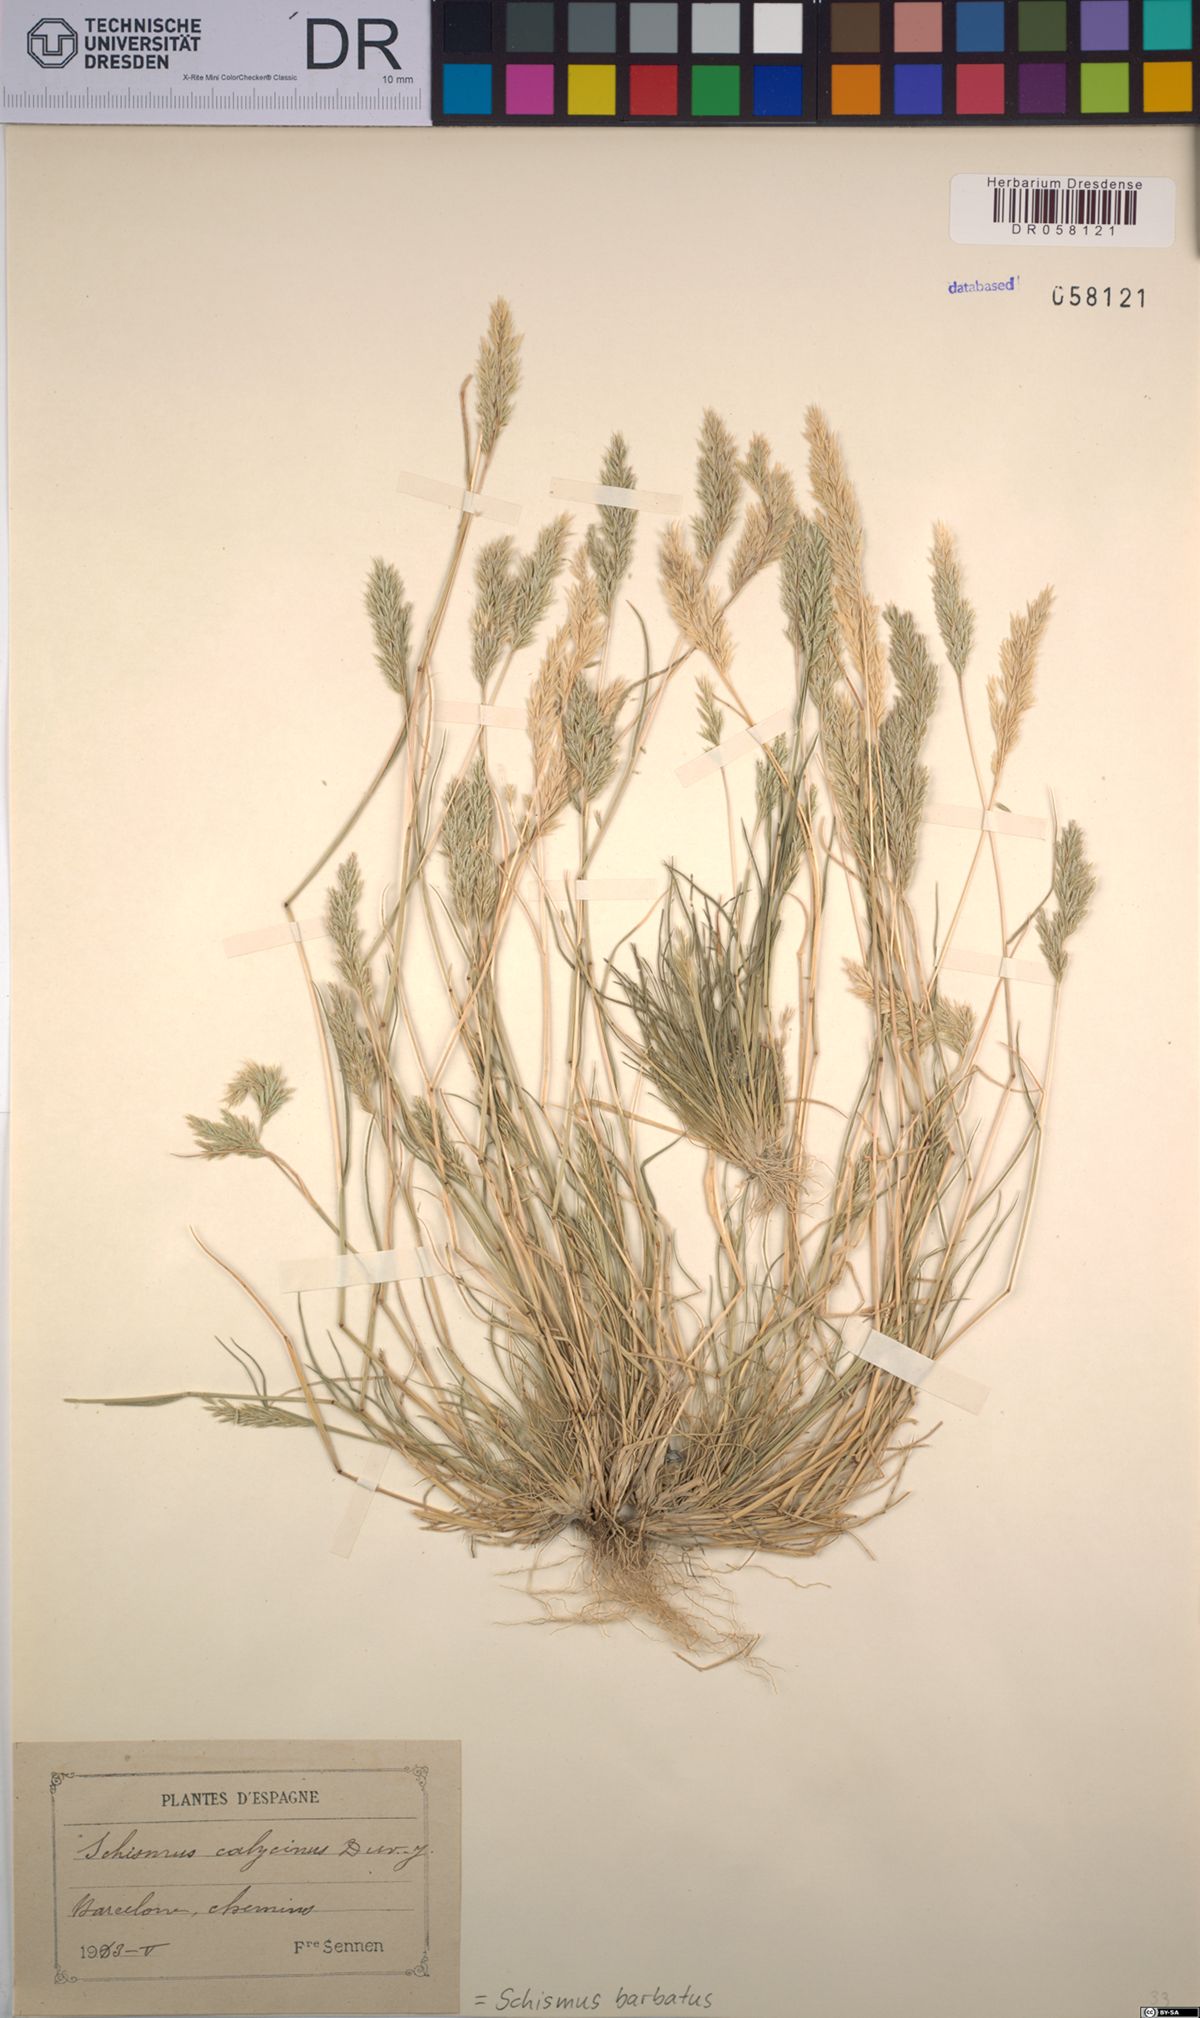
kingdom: Plantae
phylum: Tracheophyta
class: Liliopsida
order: Poales
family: Poaceae
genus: Schismus
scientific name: Schismus barbatus
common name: Kelch-grass
